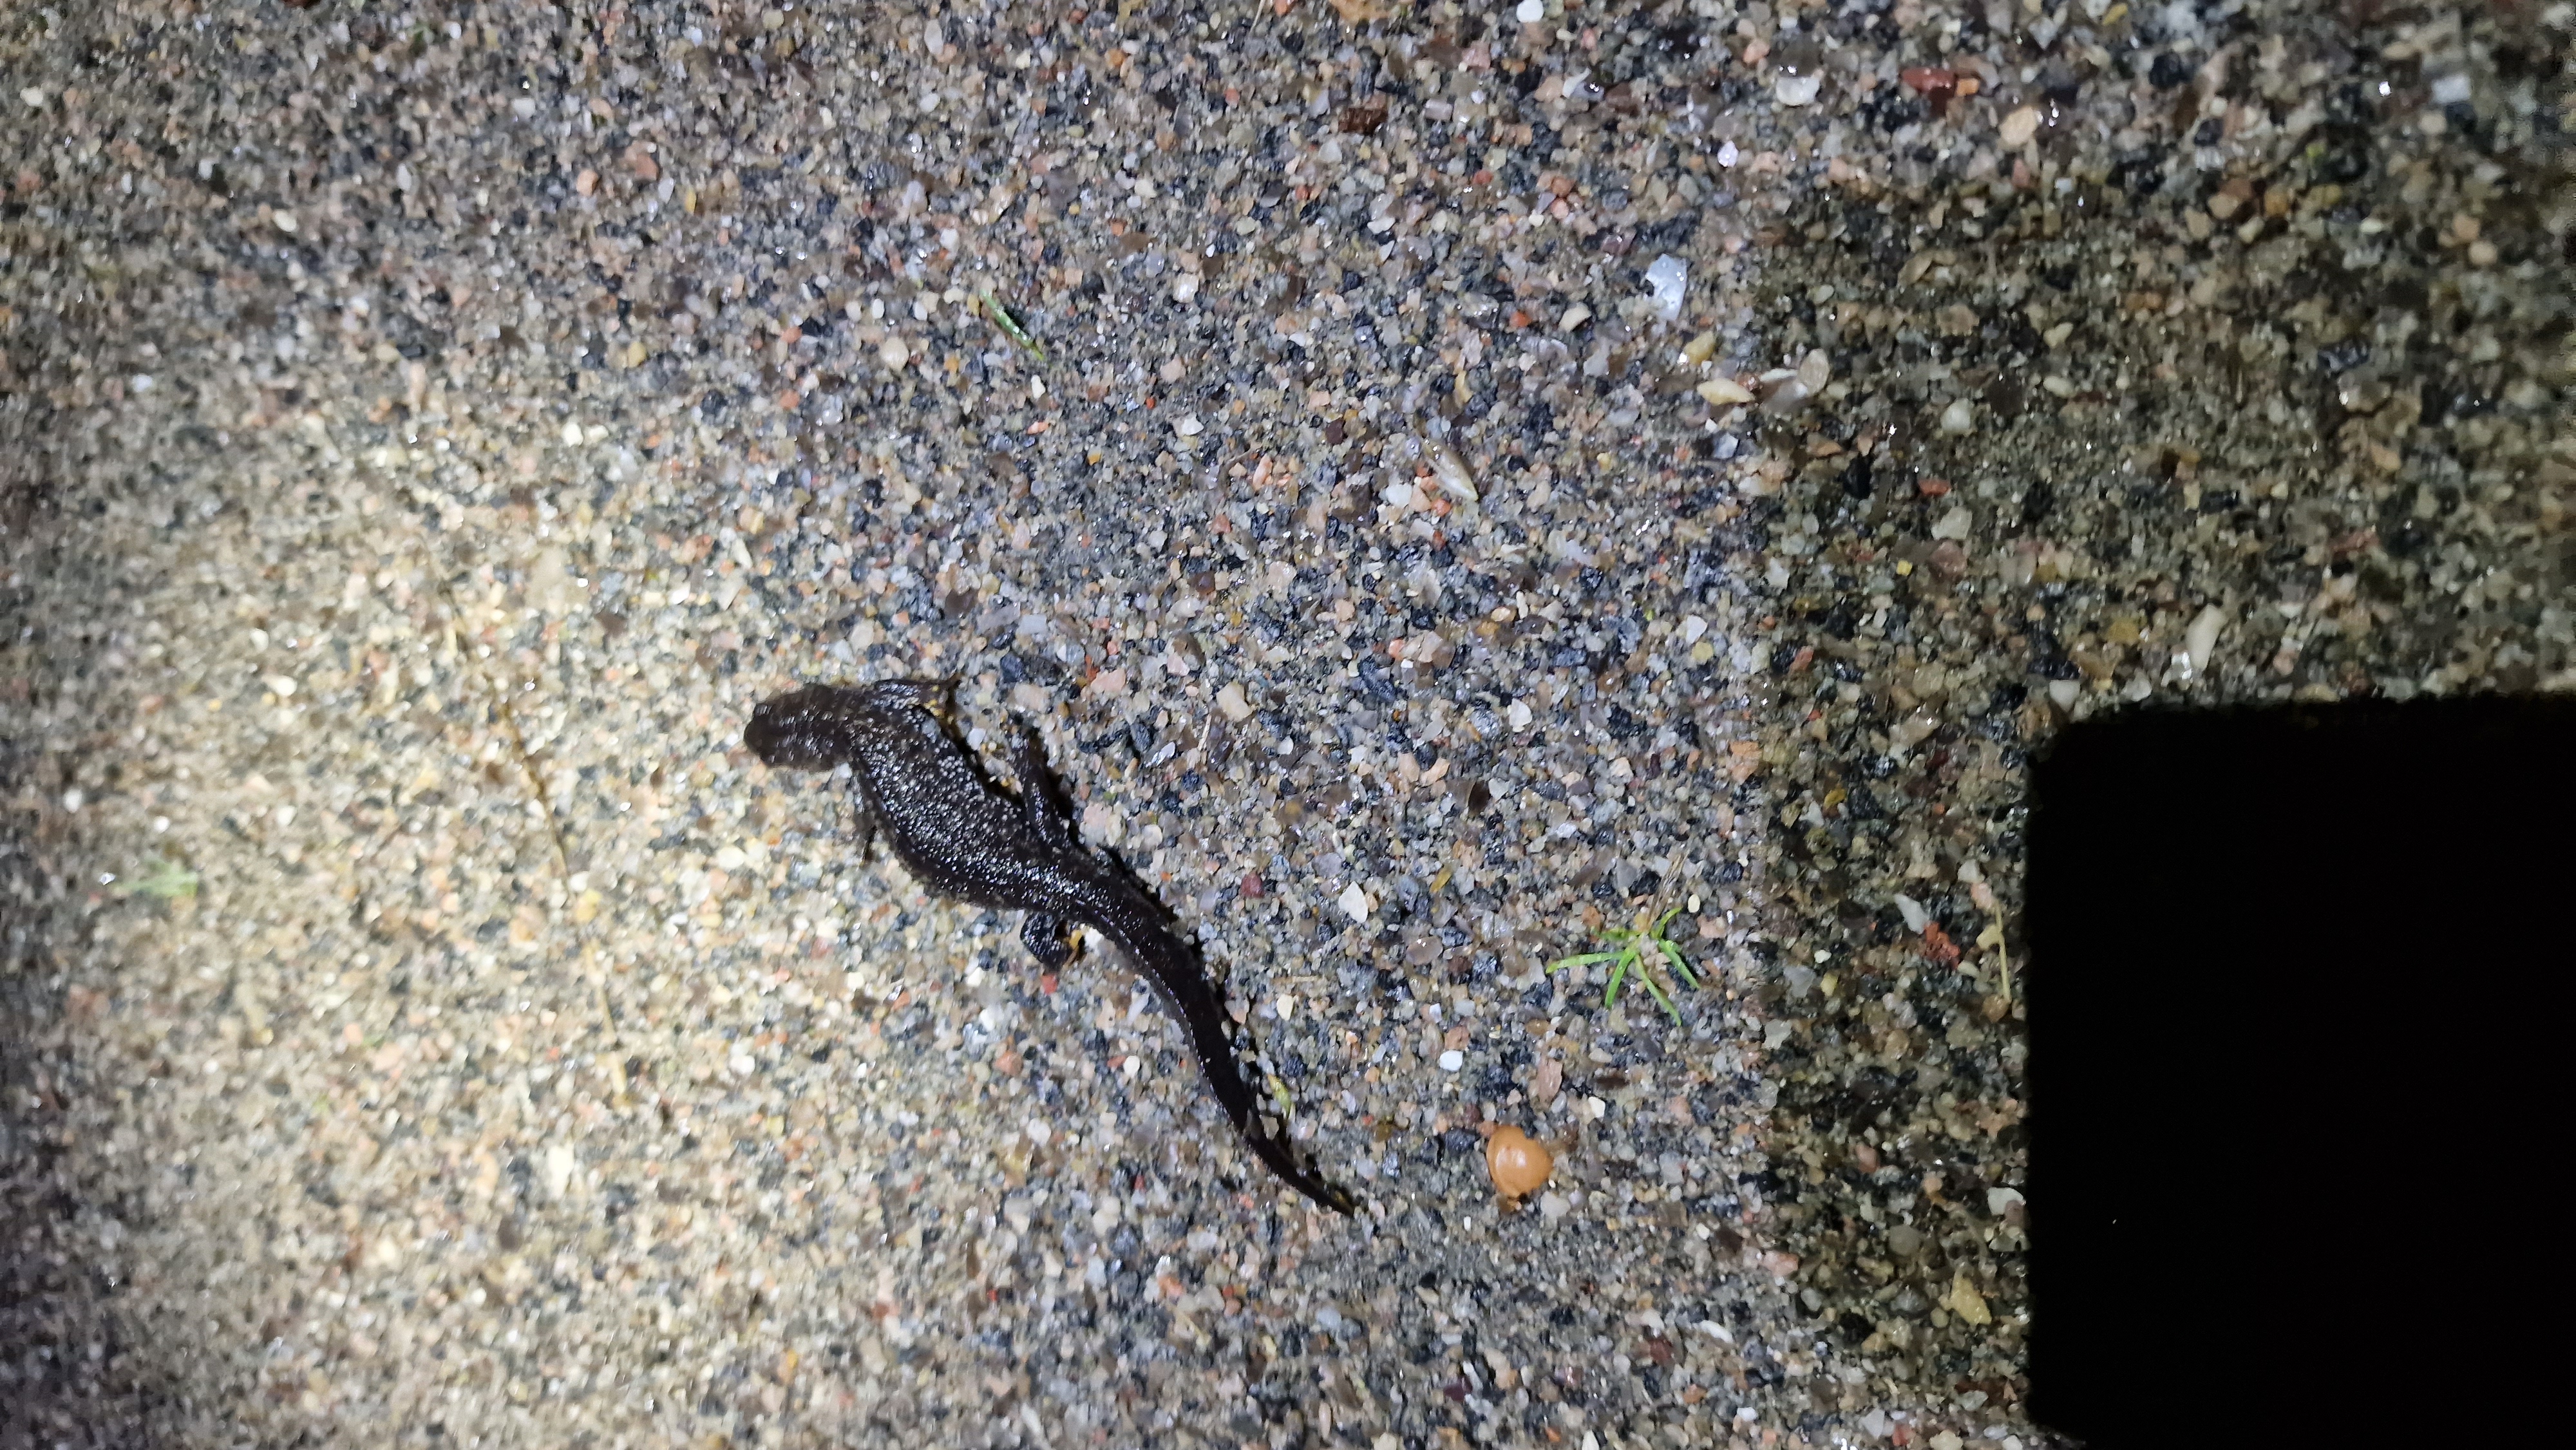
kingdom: Animalia
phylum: Chordata
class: Amphibia
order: Caudata
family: Salamandridae
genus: Triturus
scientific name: Triturus cristatus
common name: Stor vandsalamander
